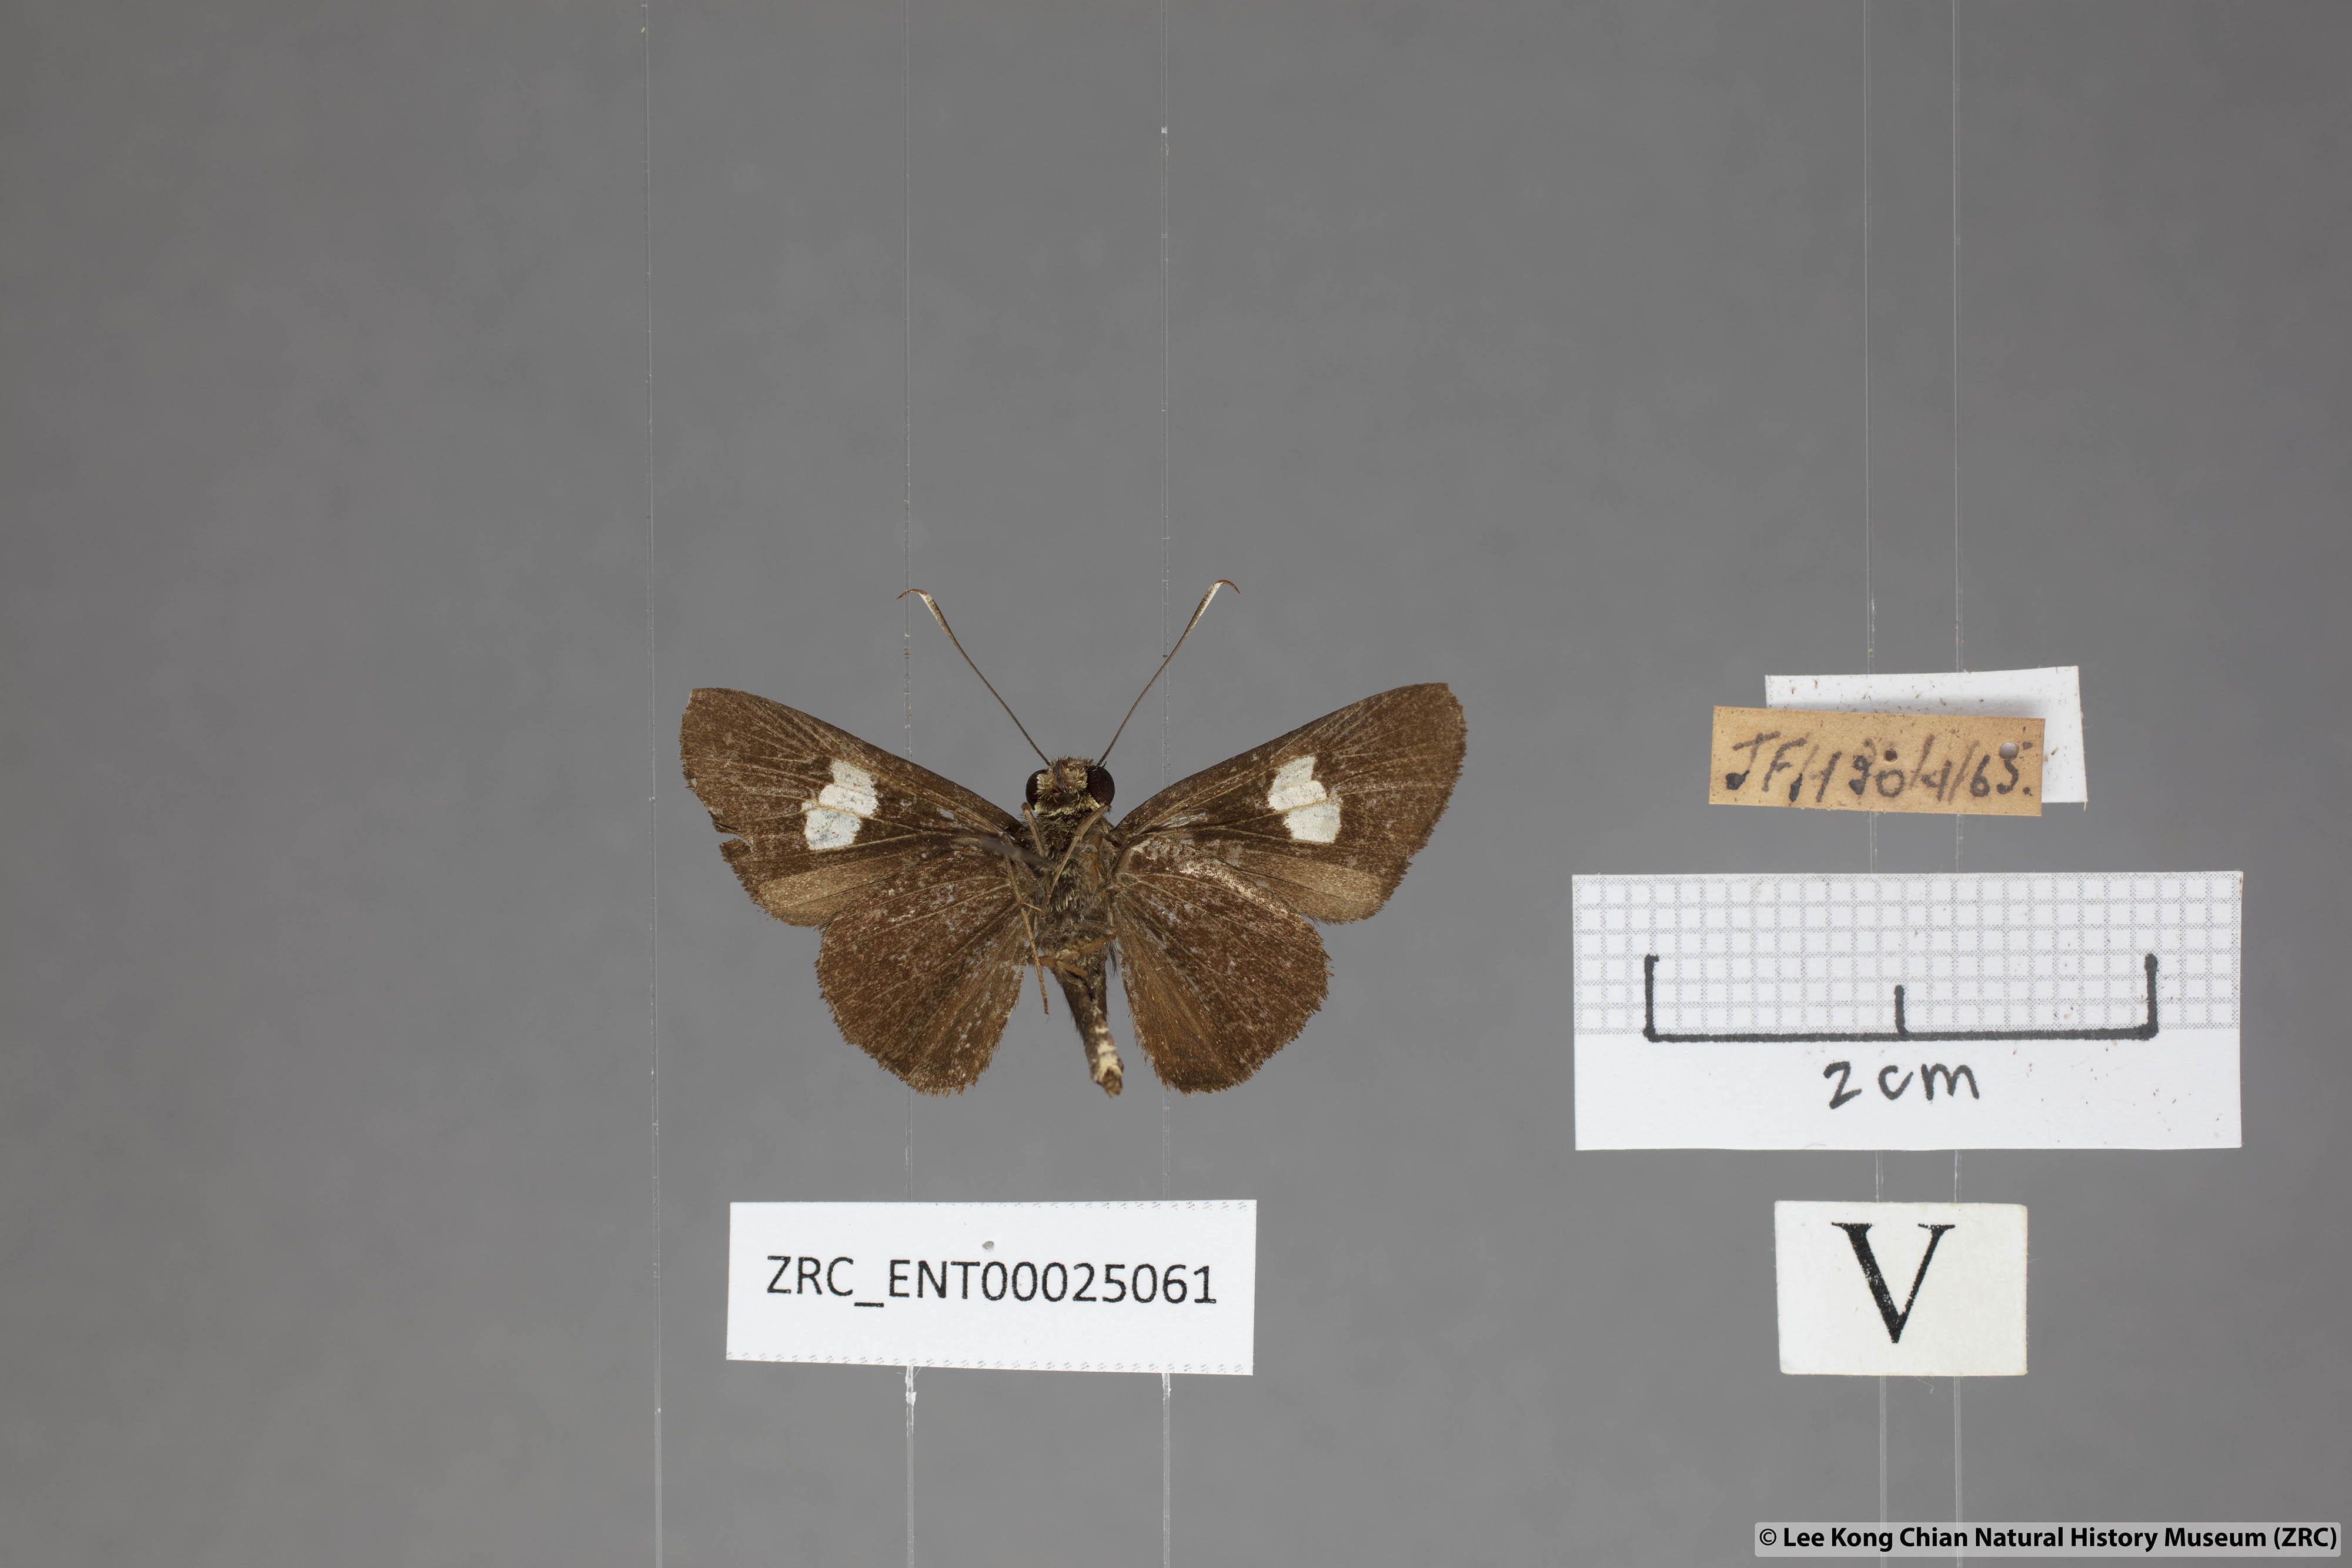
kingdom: Animalia
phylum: Arthropoda
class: Insecta
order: Lepidoptera
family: Hesperiidae
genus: Oerane
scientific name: Oerane microthyrus
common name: White club flitter
